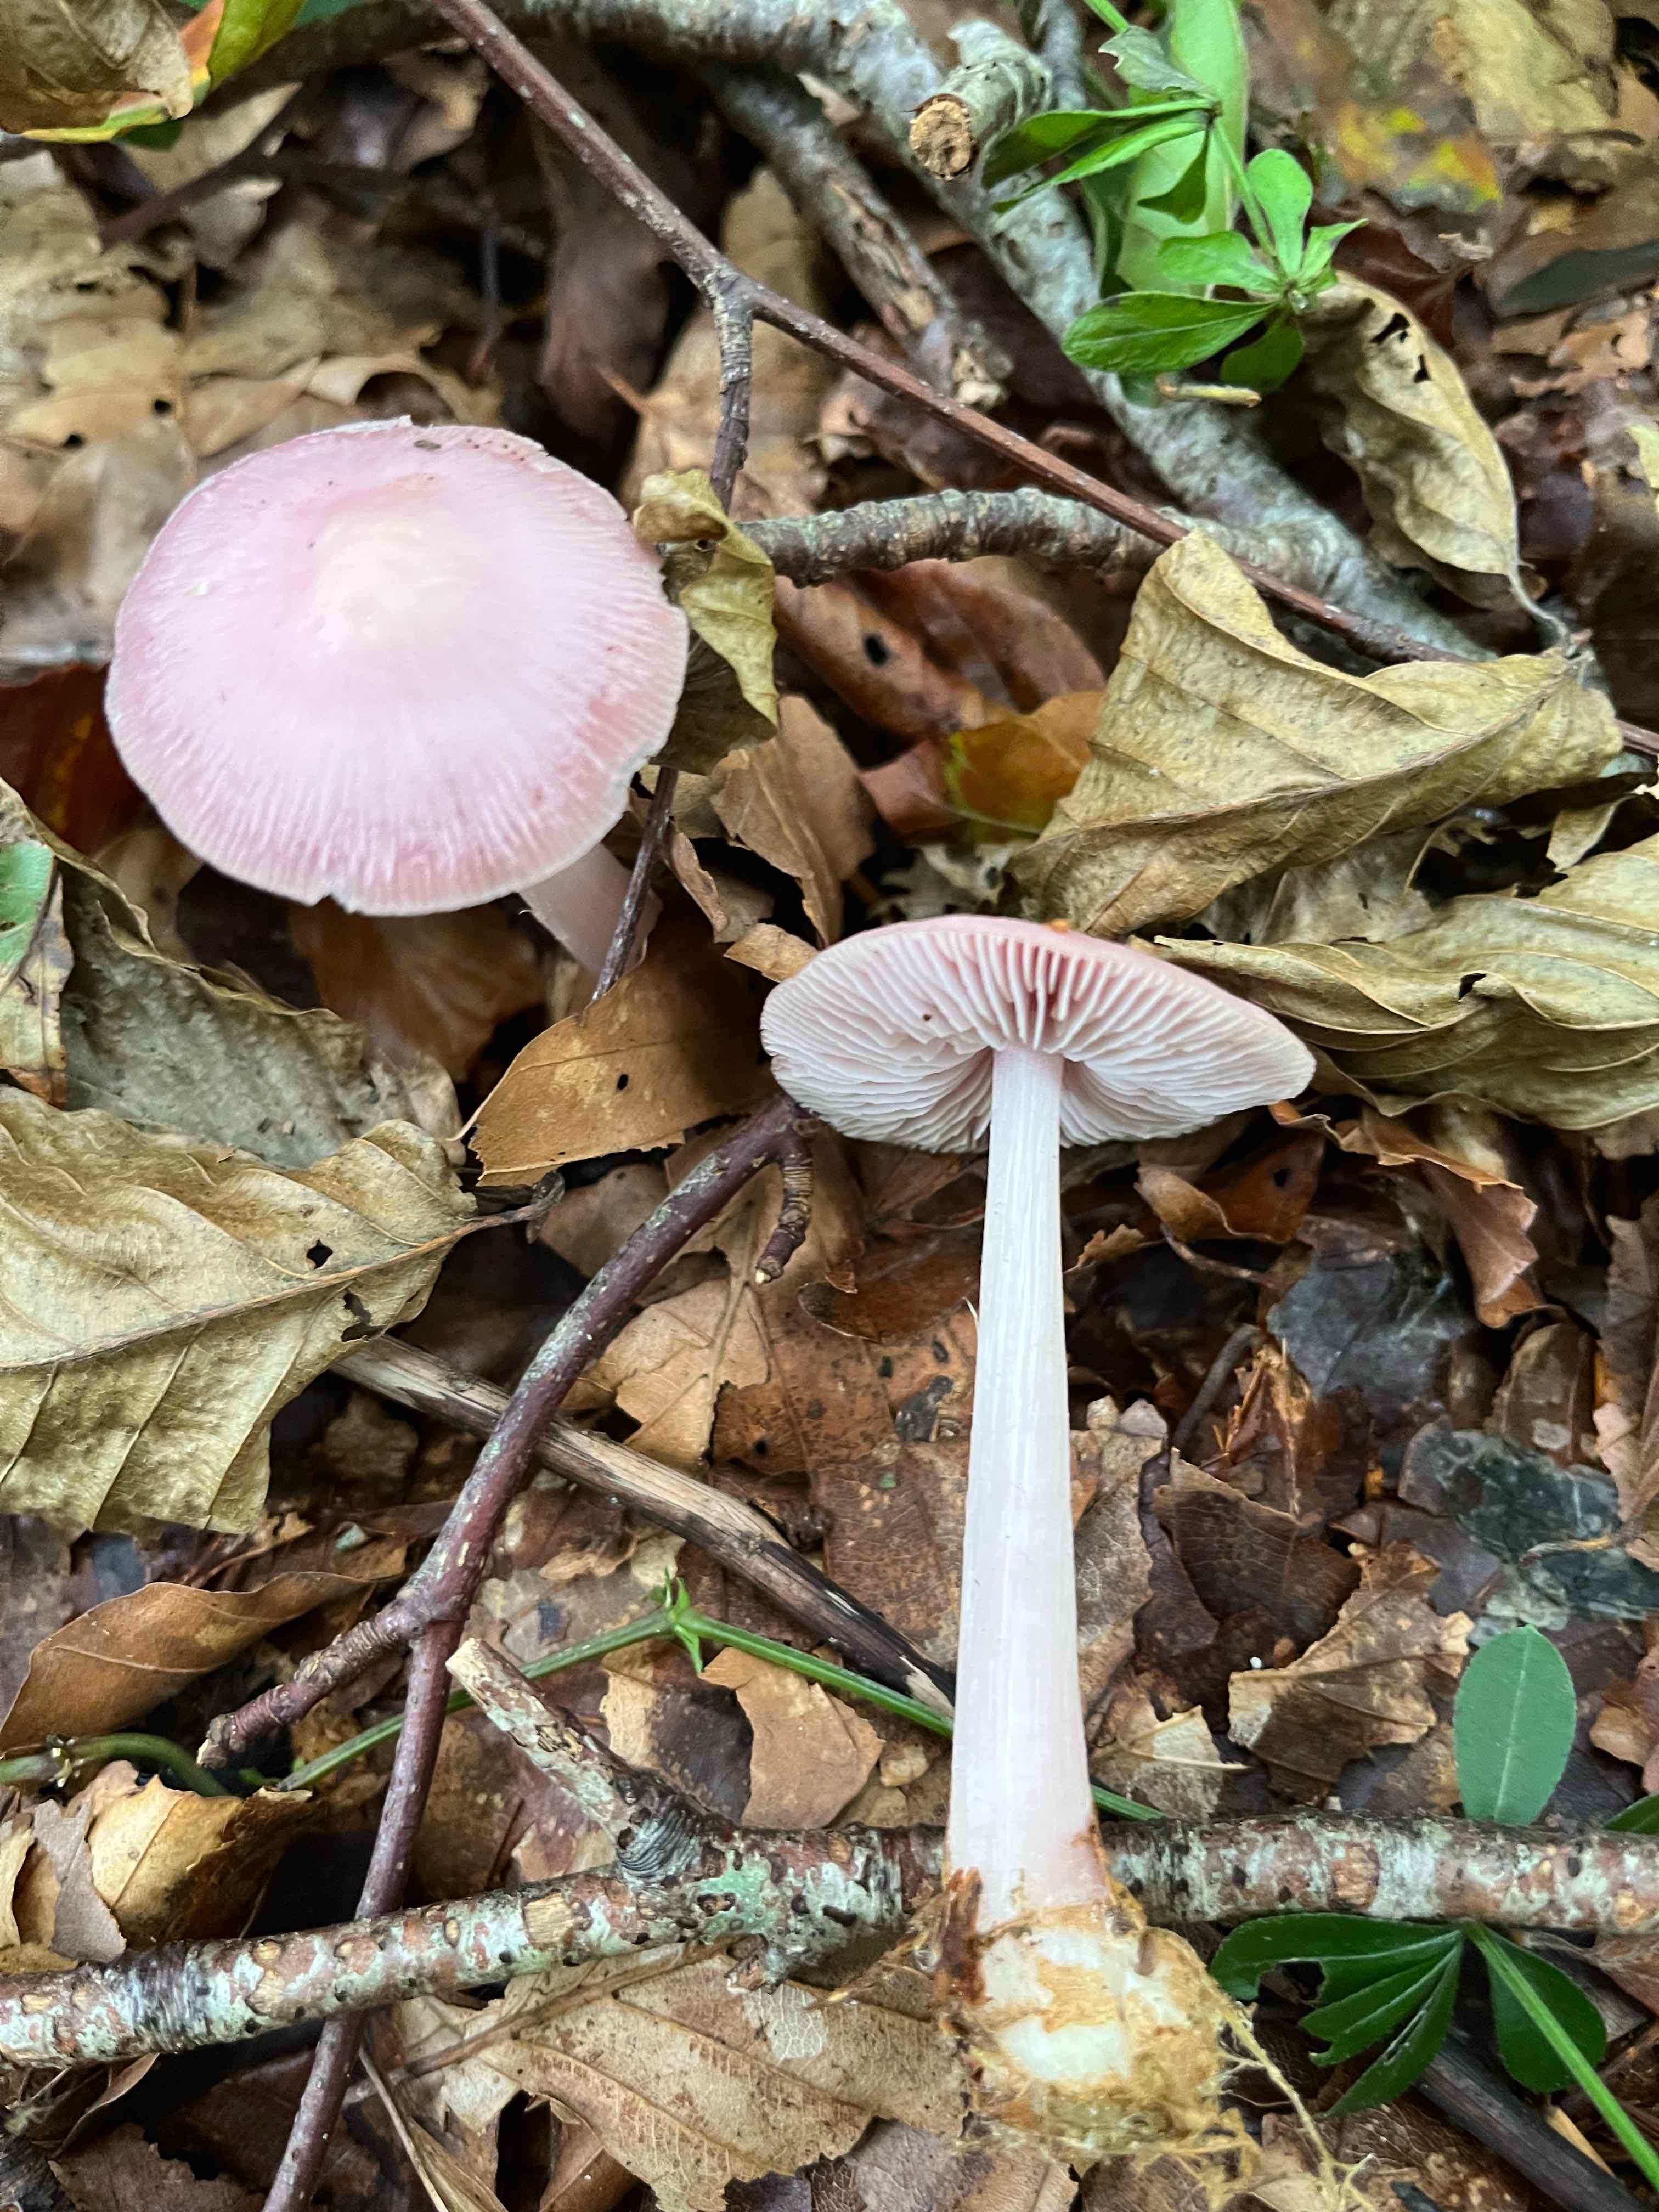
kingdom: Fungi
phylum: Basidiomycota
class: Agaricomycetes
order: Agaricales
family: Mycenaceae
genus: Mycena
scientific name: Mycena rosea
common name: rosa huesvamp
